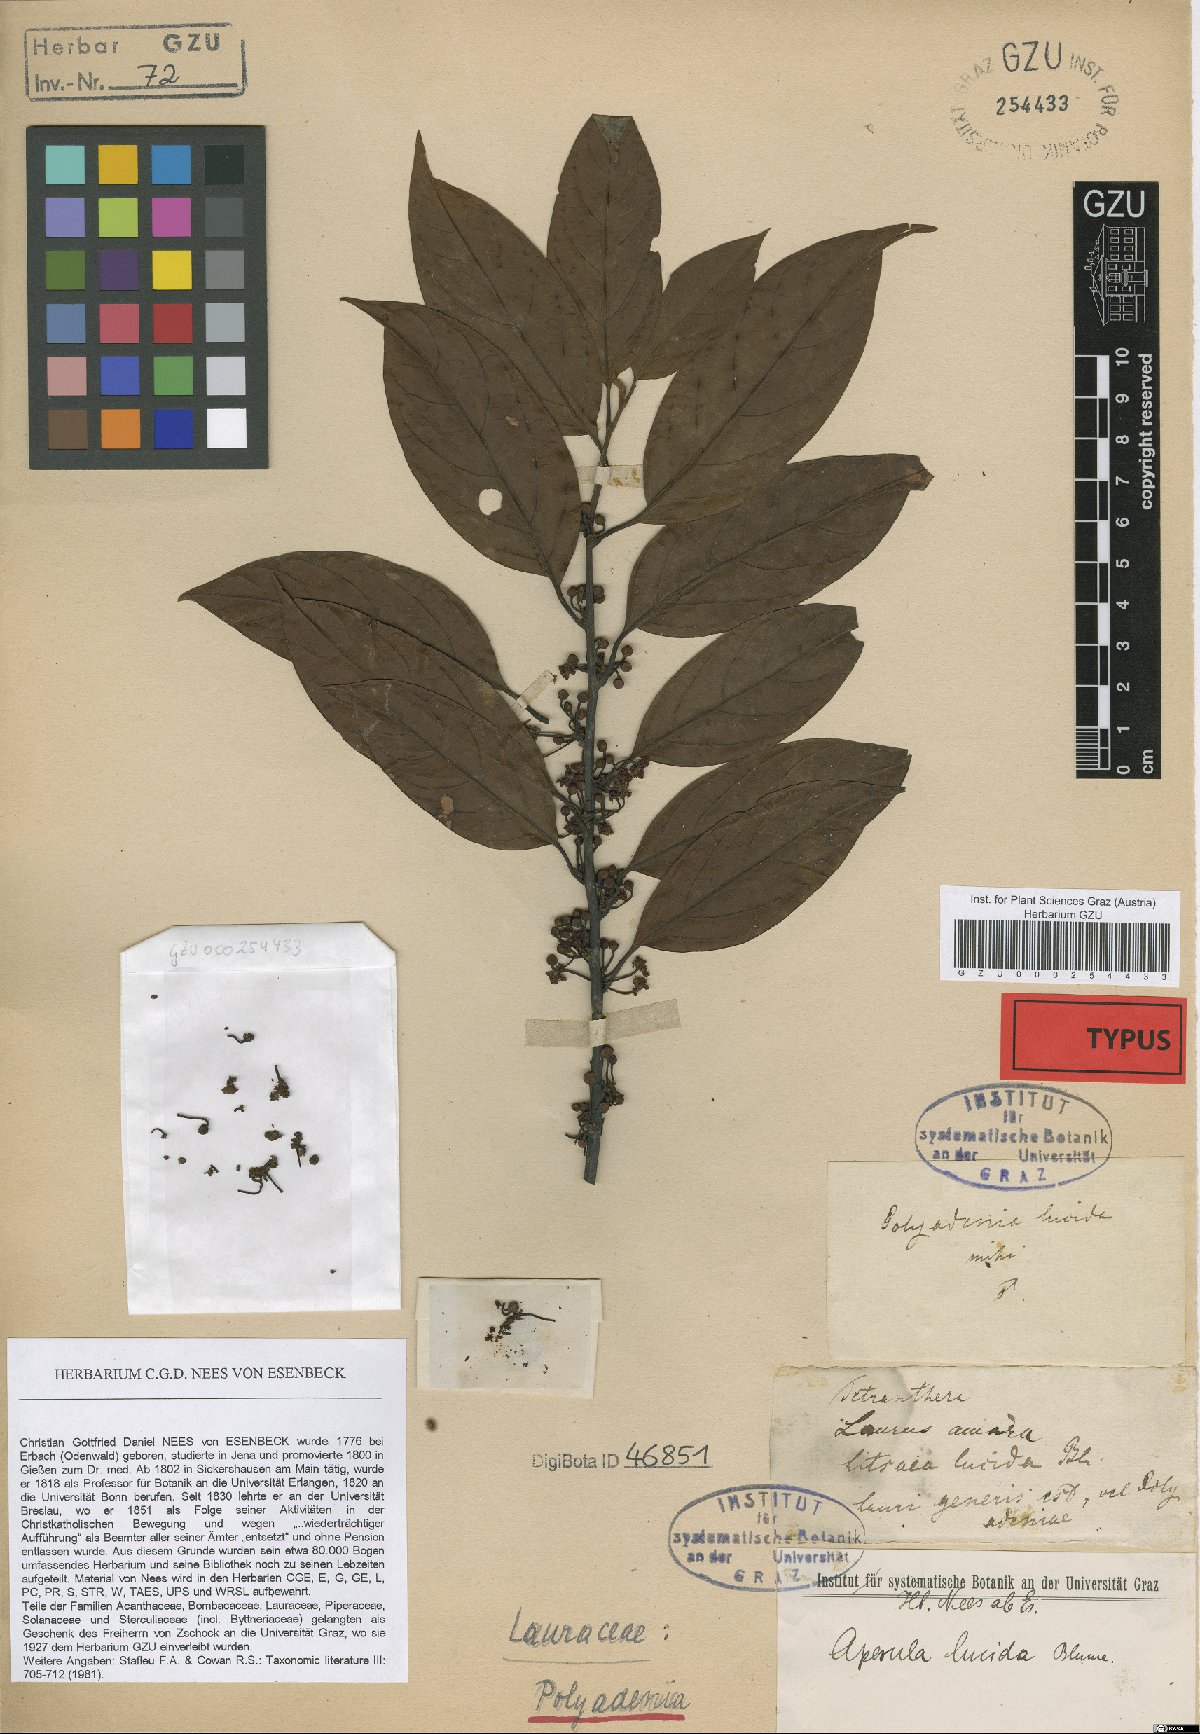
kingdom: Plantae
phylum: Tracheophyta
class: Magnoliopsida
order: Laurales
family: Lauraceae
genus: Lindera
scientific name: Lindera lucida
